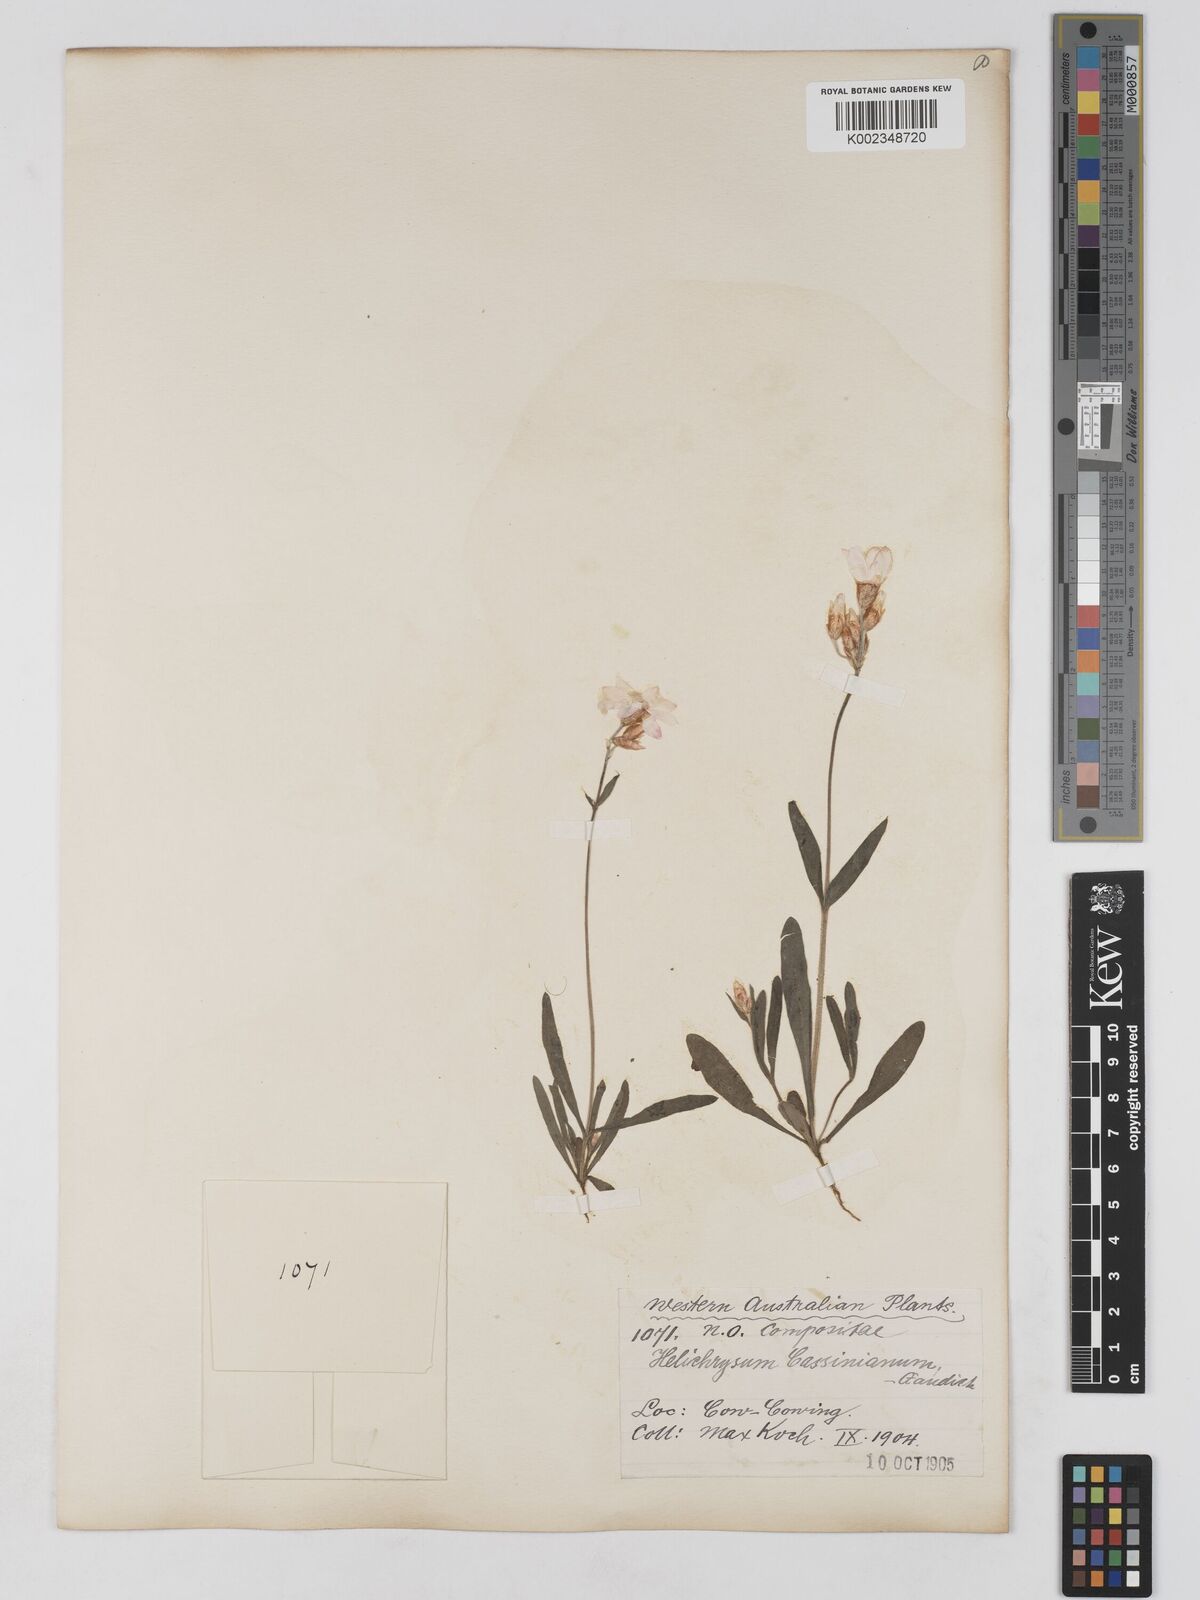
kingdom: Plantae
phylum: Tracheophyta
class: Magnoliopsida
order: Asterales
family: Asteraceae
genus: Schoenia
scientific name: Schoenia cassiniana
